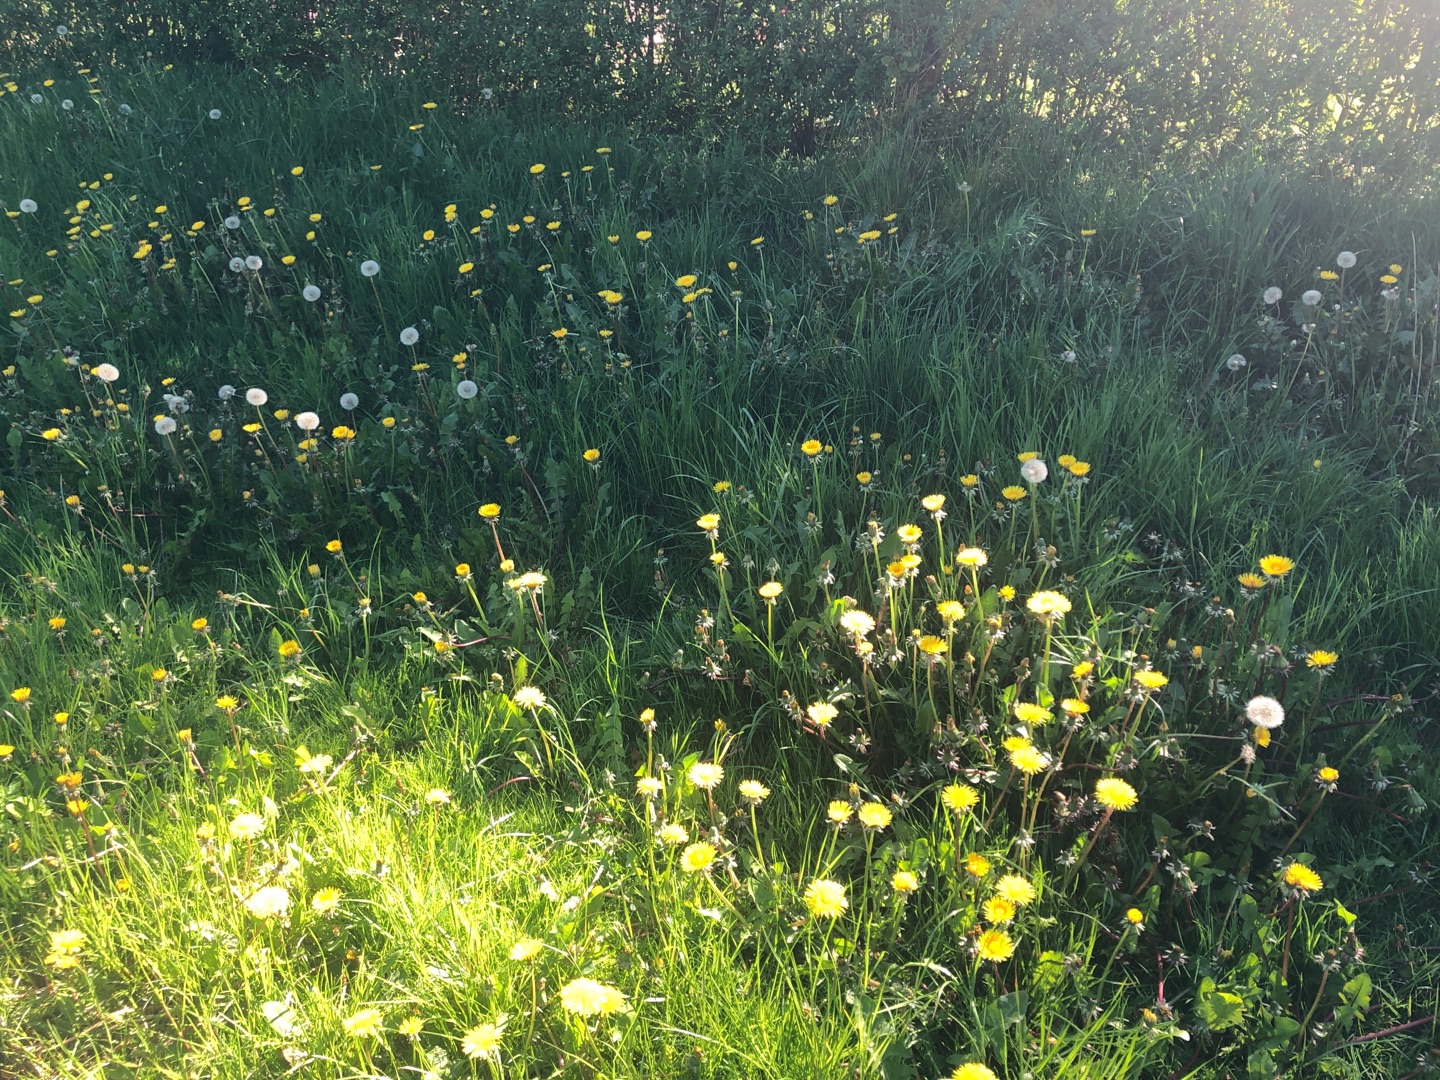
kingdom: Plantae
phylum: Tracheophyta
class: Magnoliopsida
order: Asterales
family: Asteraceae
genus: Taraxacum
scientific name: Taraxacum
